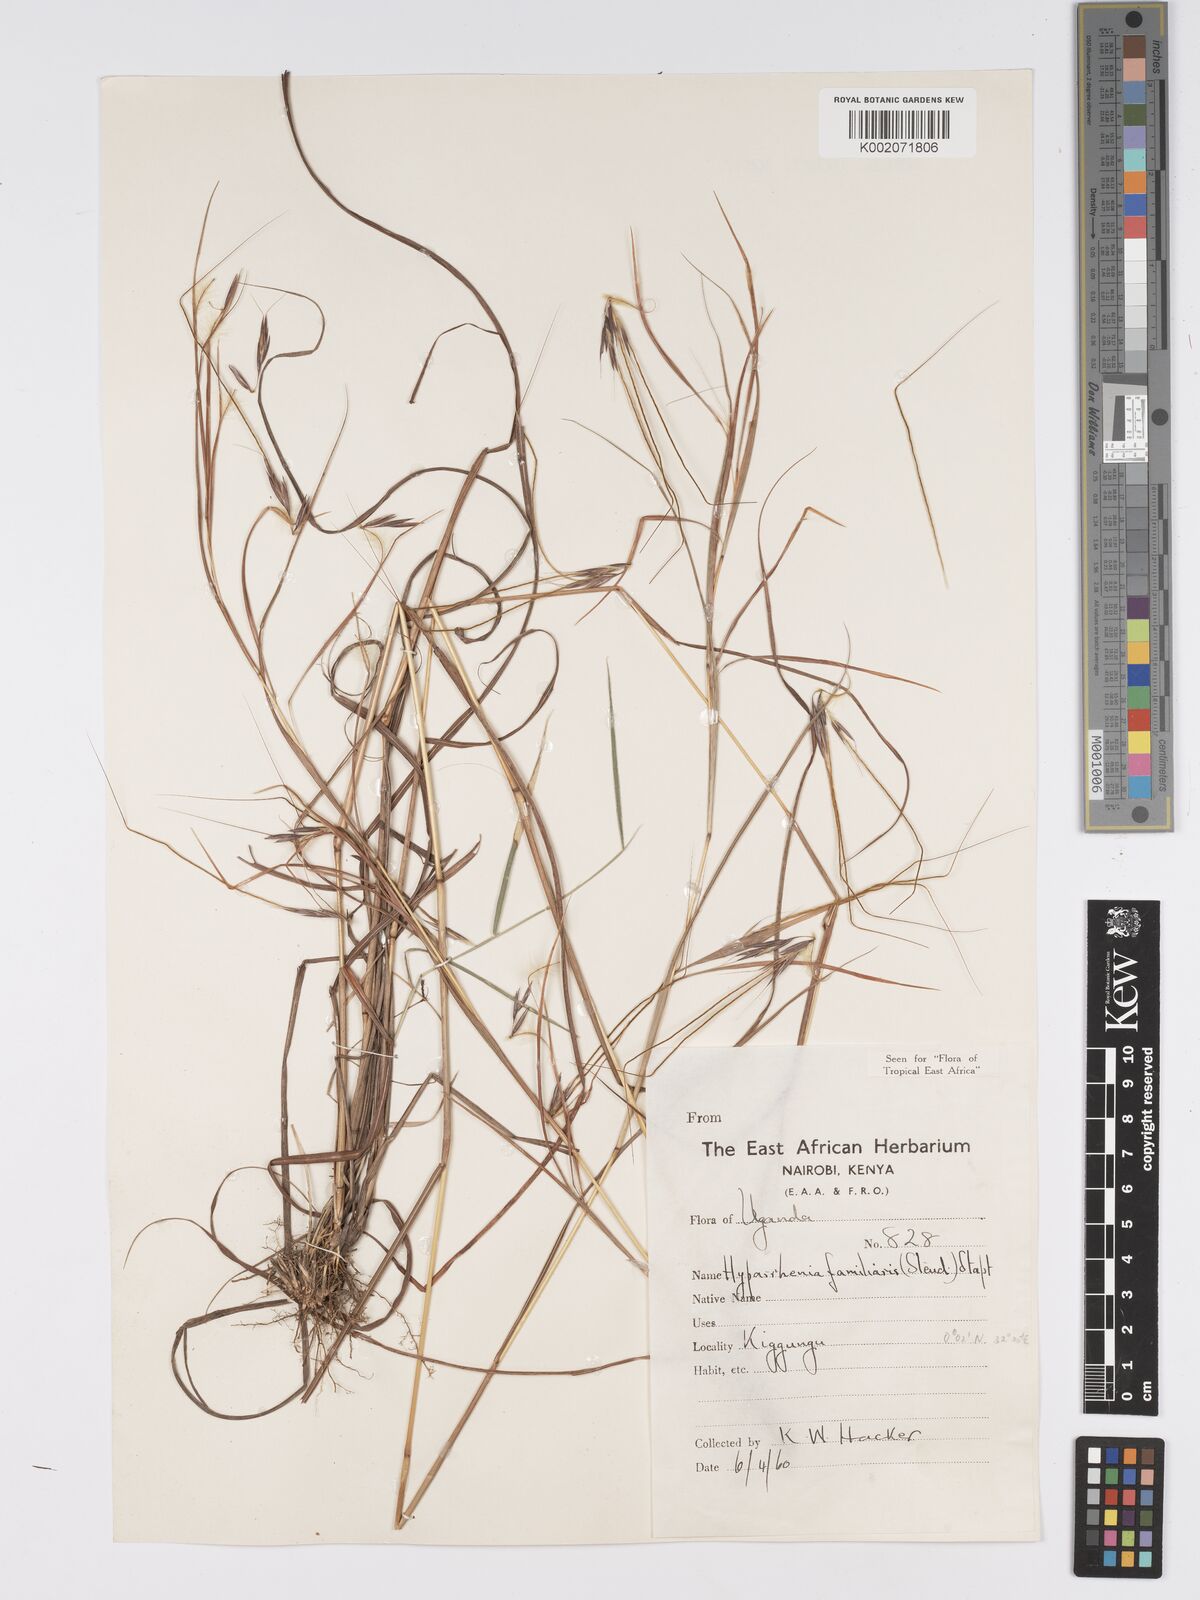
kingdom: Plantae
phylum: Tracheophyta
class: Liliopsida
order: Poales
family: Poaceae
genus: Hyparrhenia
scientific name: Hyparrhenia familiaris
